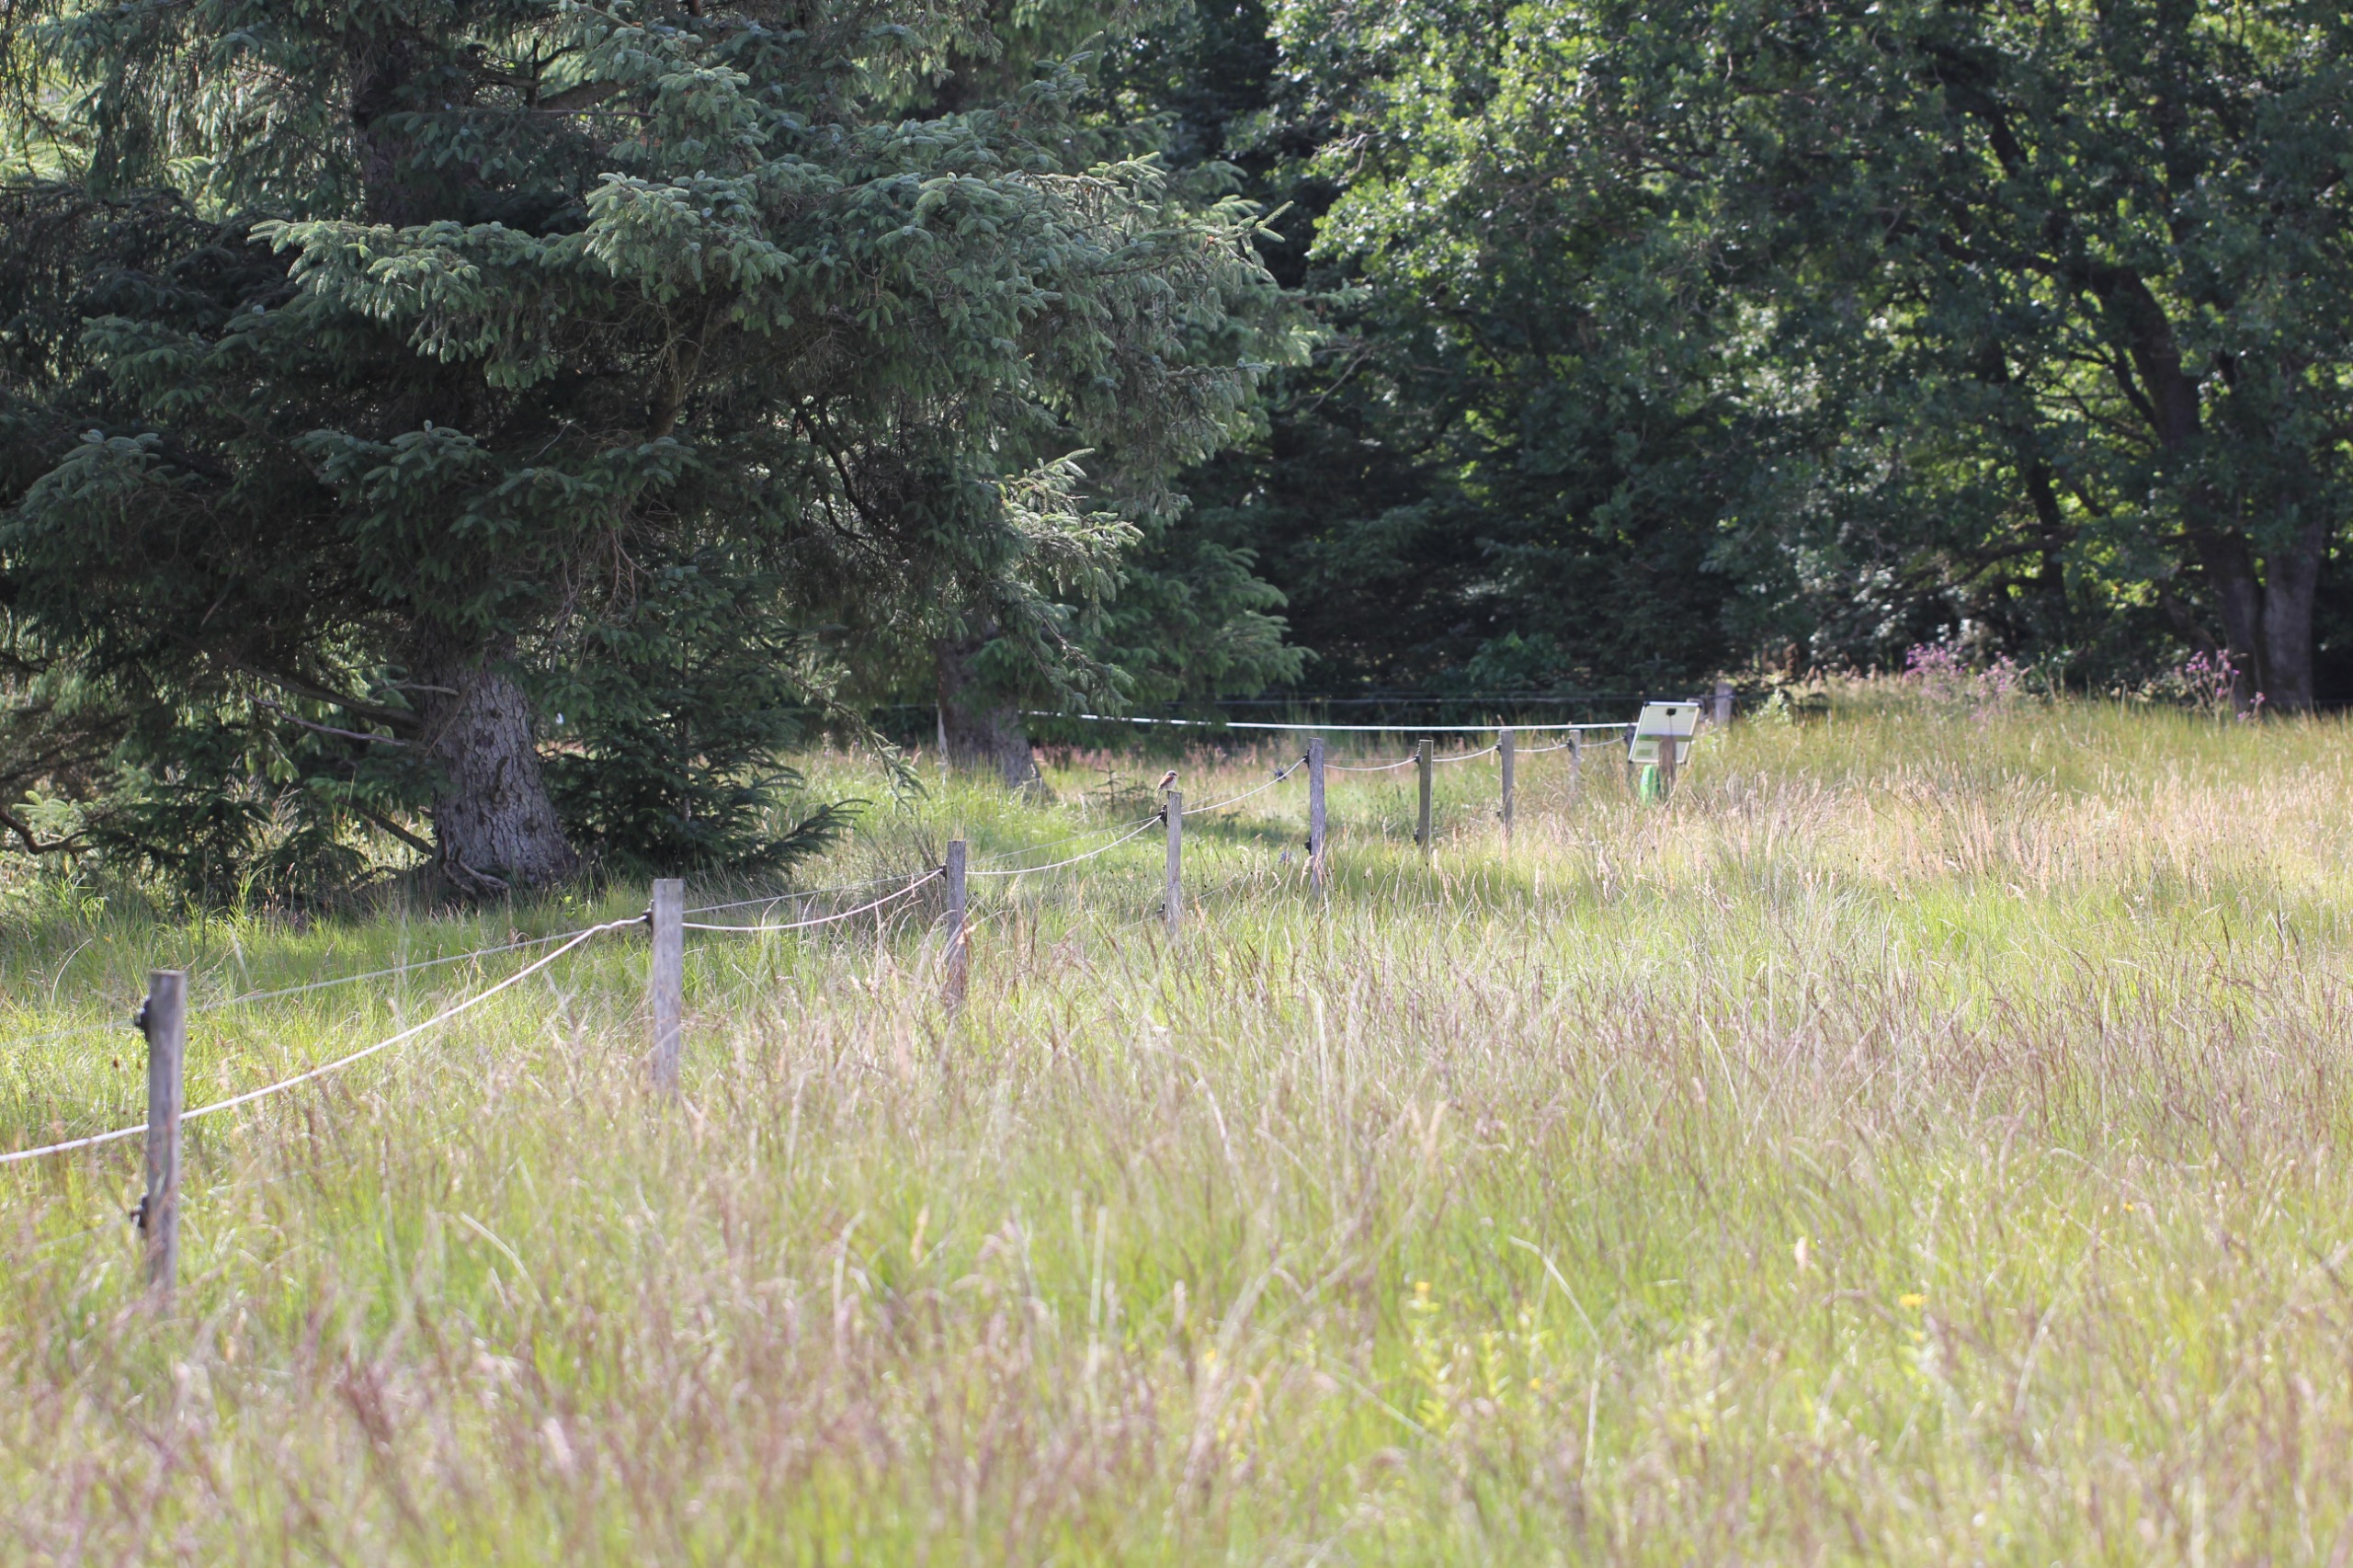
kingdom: Animalia
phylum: Chordata
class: Aves
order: Passeriformes
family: Laniidae
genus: Lanius
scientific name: Lanius collurio
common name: Rødrygget tornskade
